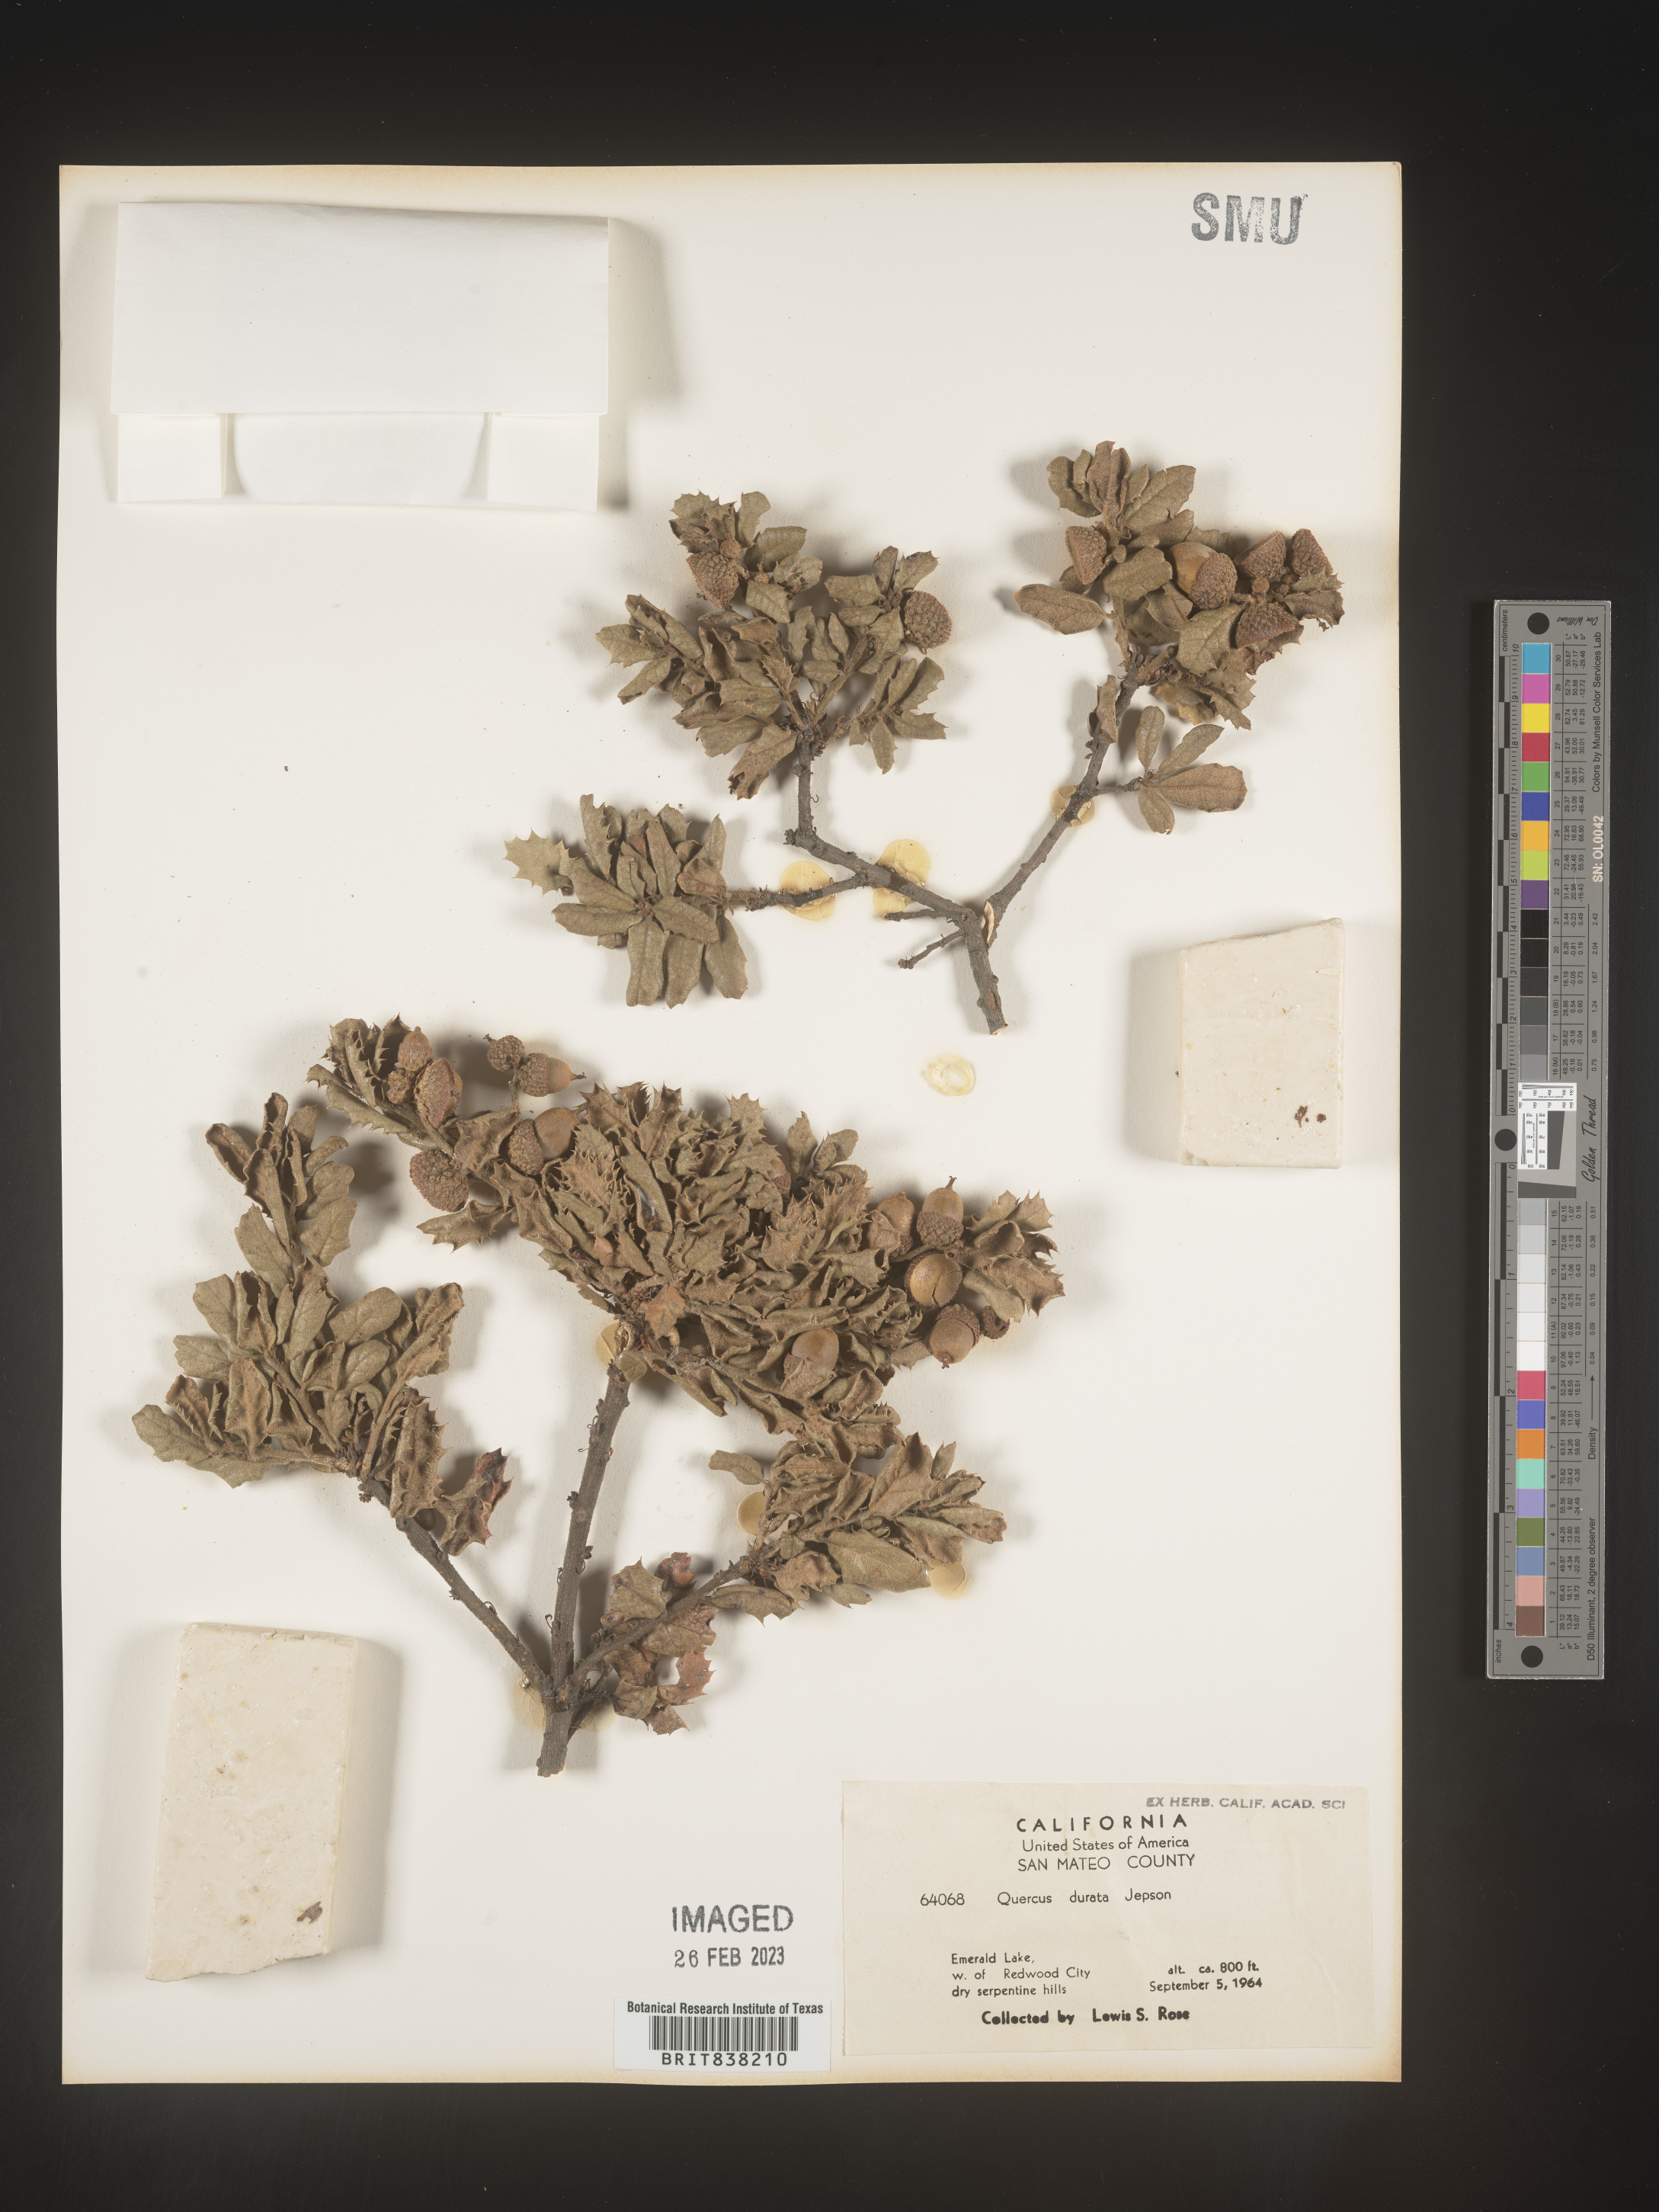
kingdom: Plantae
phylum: Tracheophyta
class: Magnoliopsida
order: Fagales
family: Fagaceae
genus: Quercus
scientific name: Quercus
